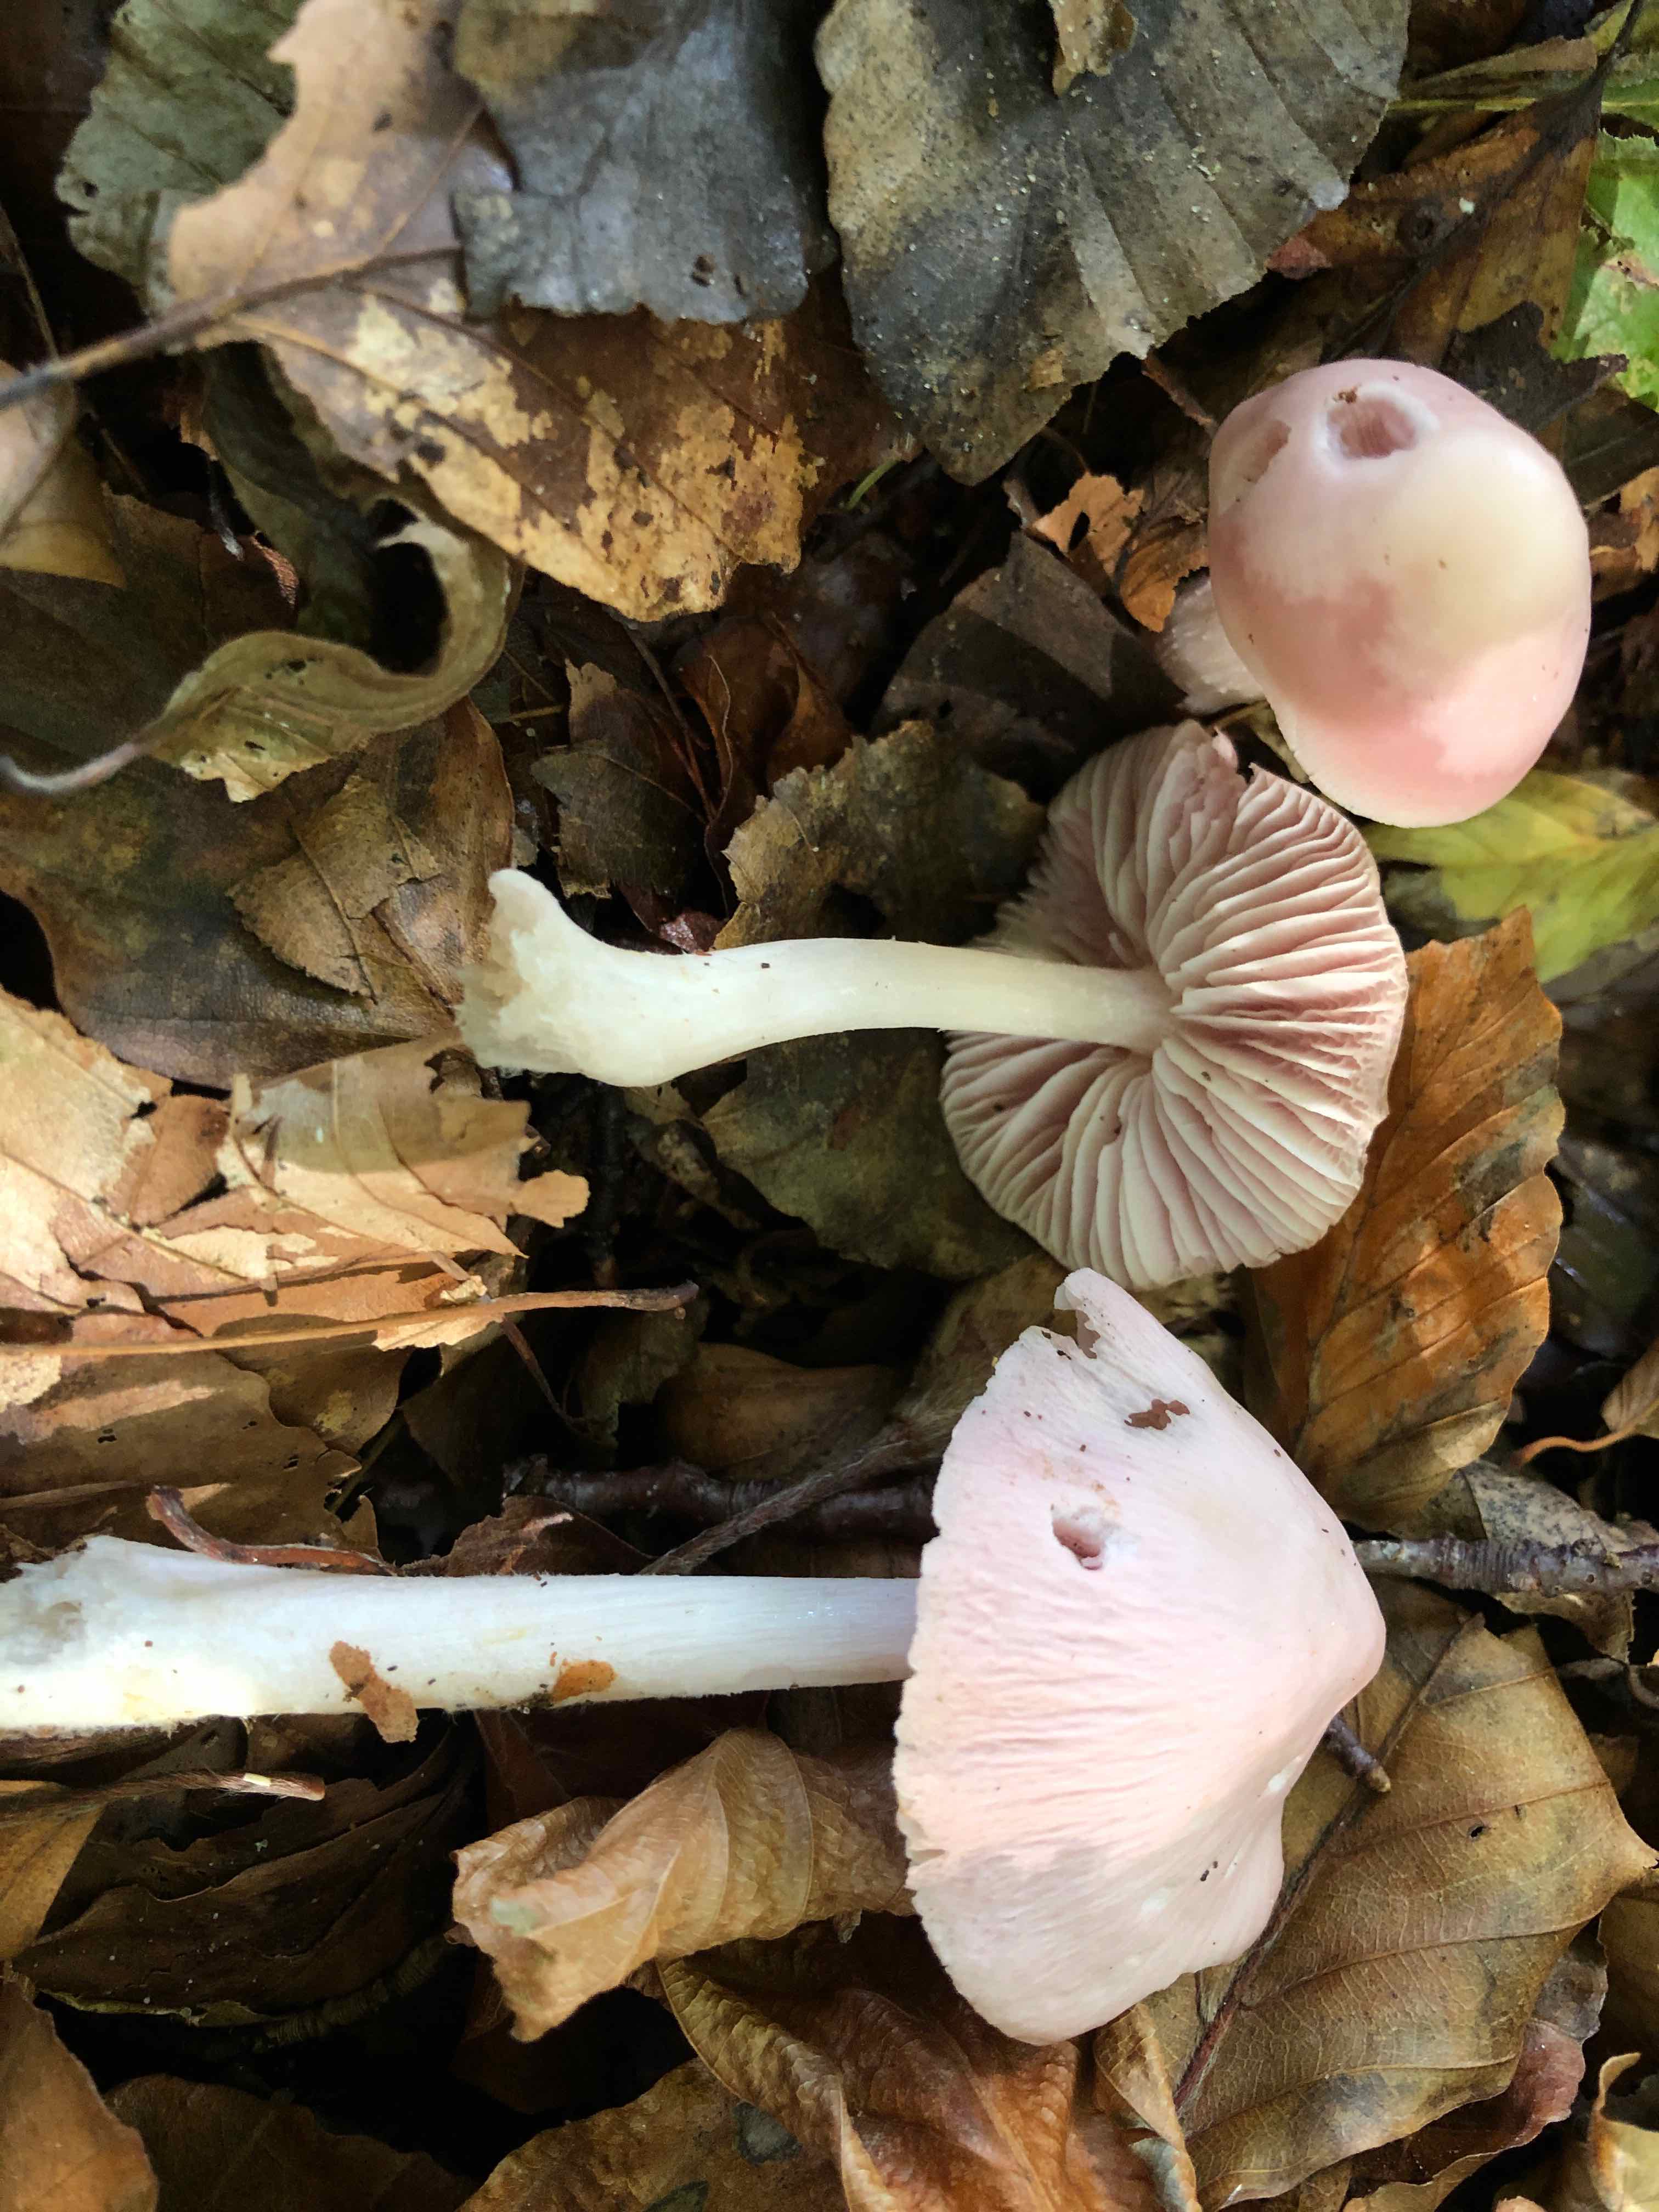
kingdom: Fungi
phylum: Basidiomycota
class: Agaricomycetes
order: Agaricales
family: Mycenaceae
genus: Mycena
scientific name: Mycena rosea
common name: rosa huesvamp
